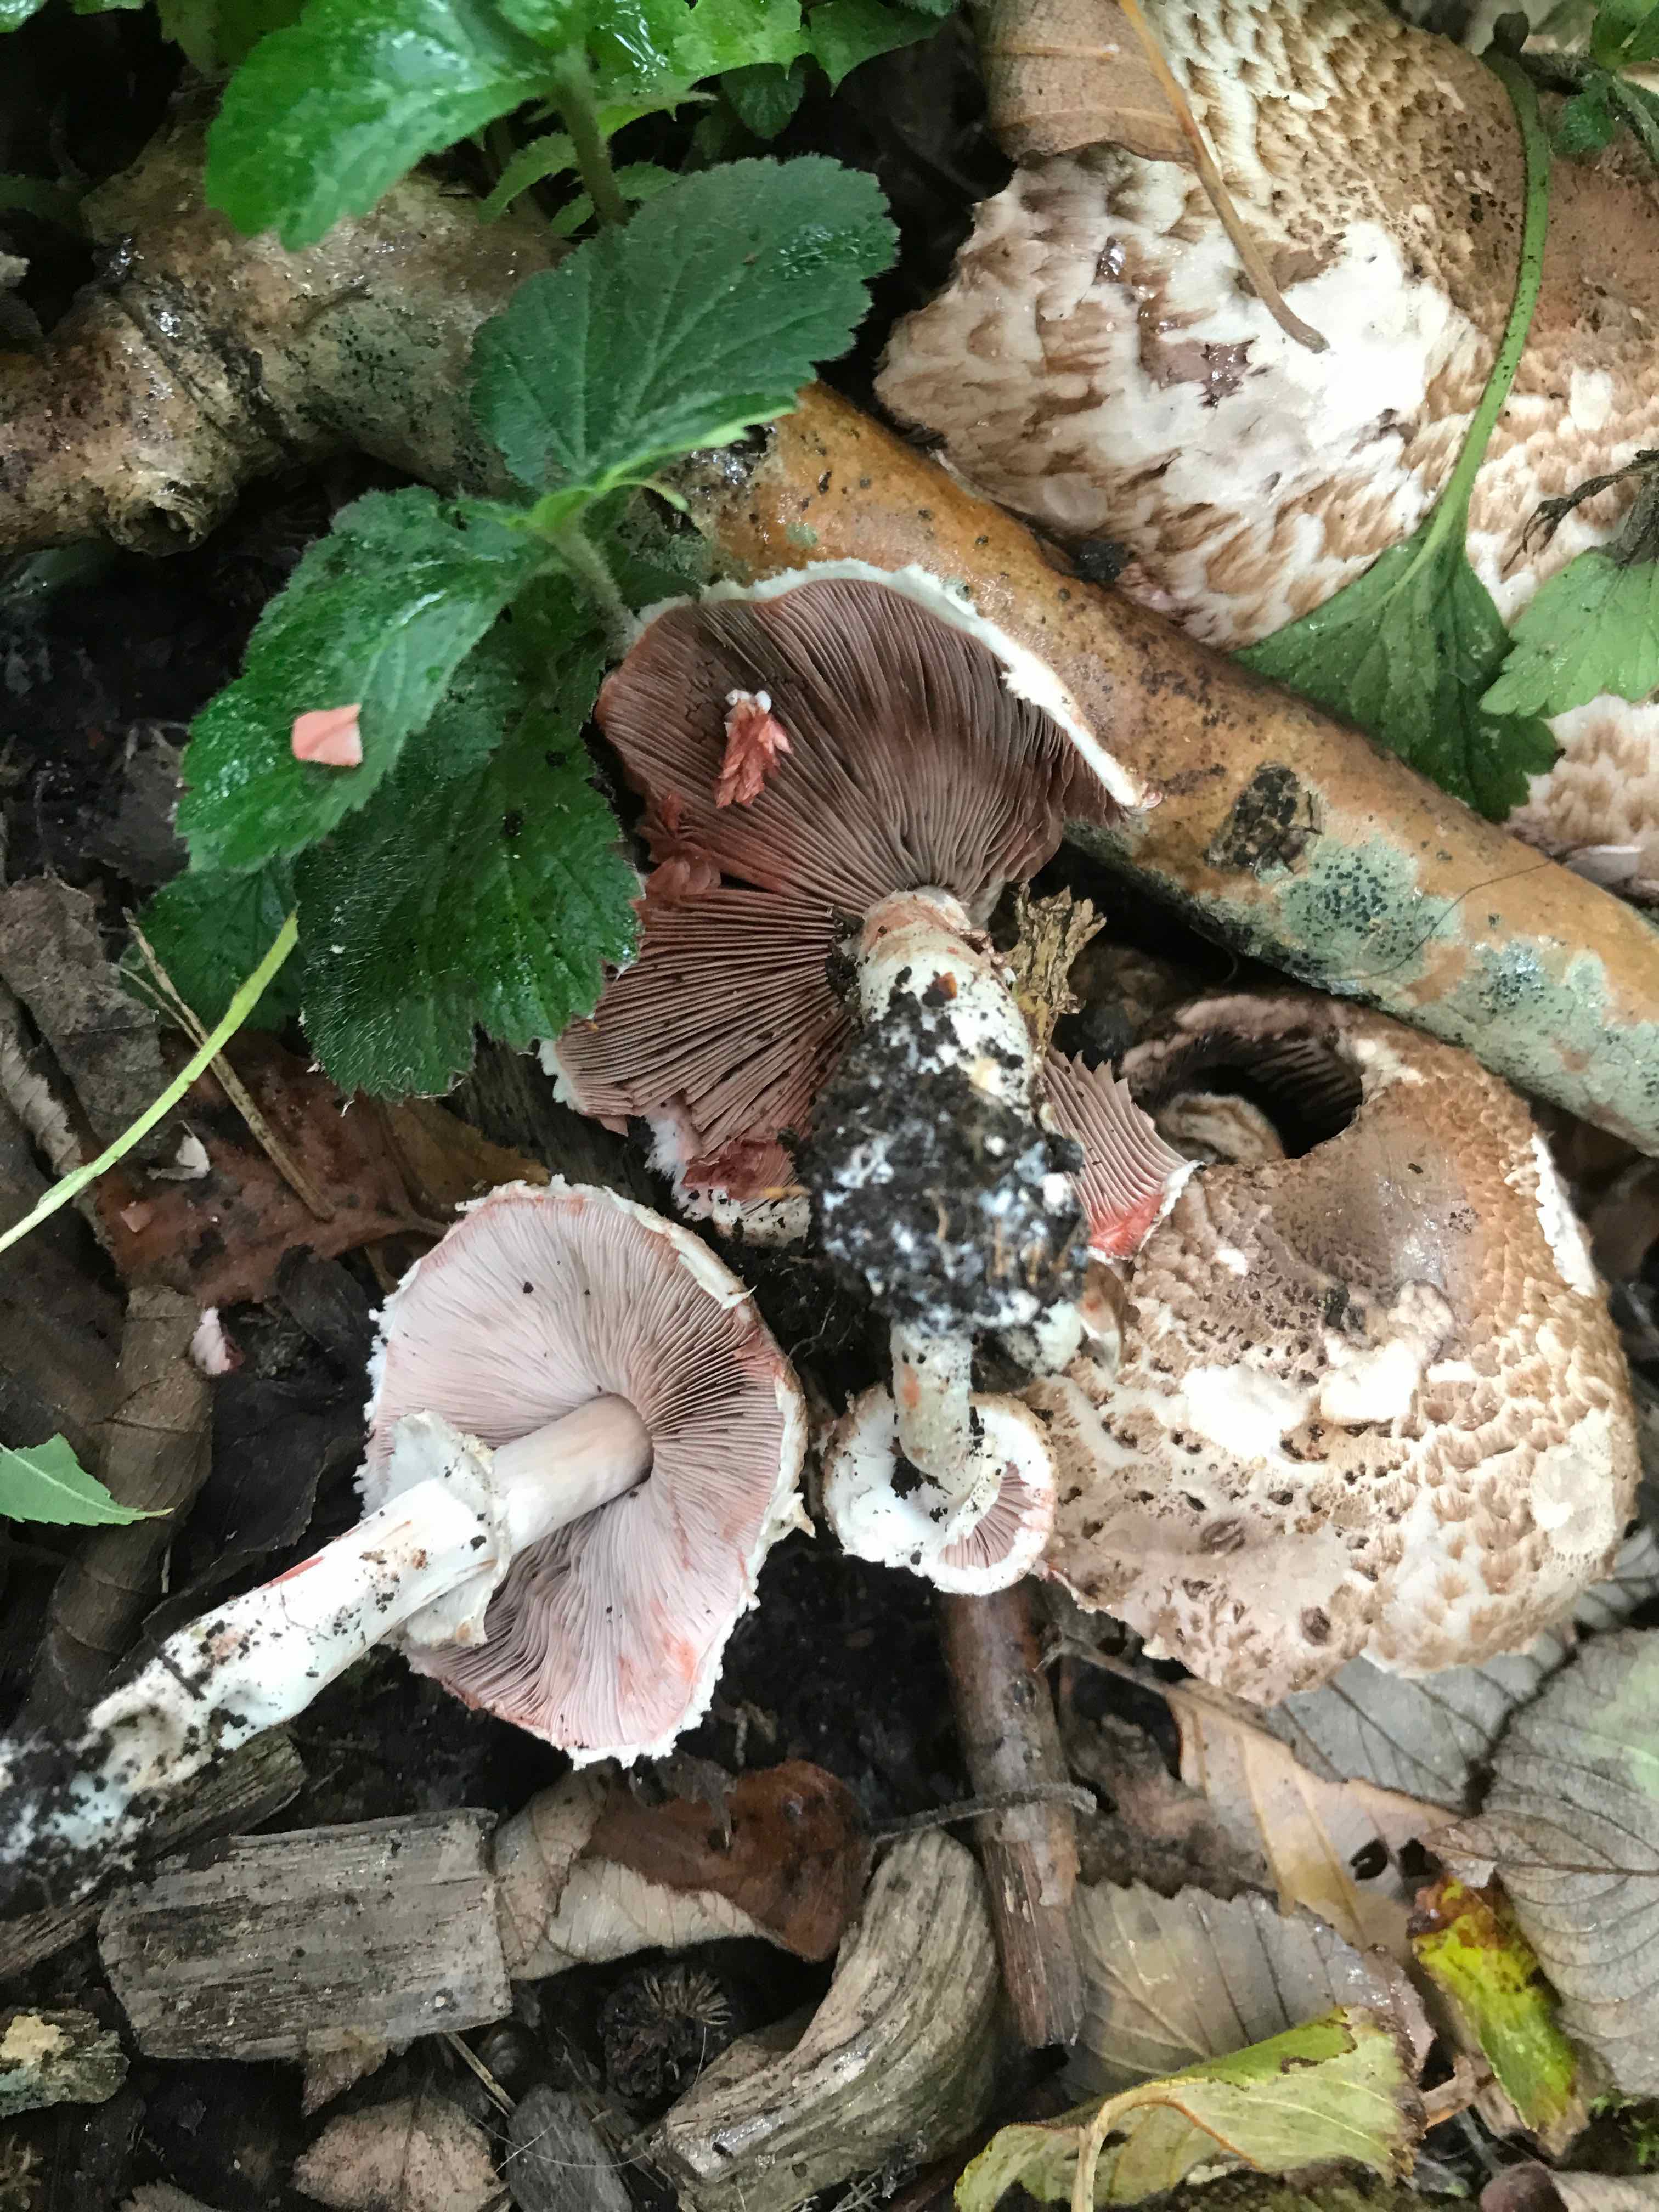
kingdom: Fungi
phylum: Basidiomycota
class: Agaricomycetes
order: Agaricales
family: Agaricaceae
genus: Agaricus
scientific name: Agaricus
